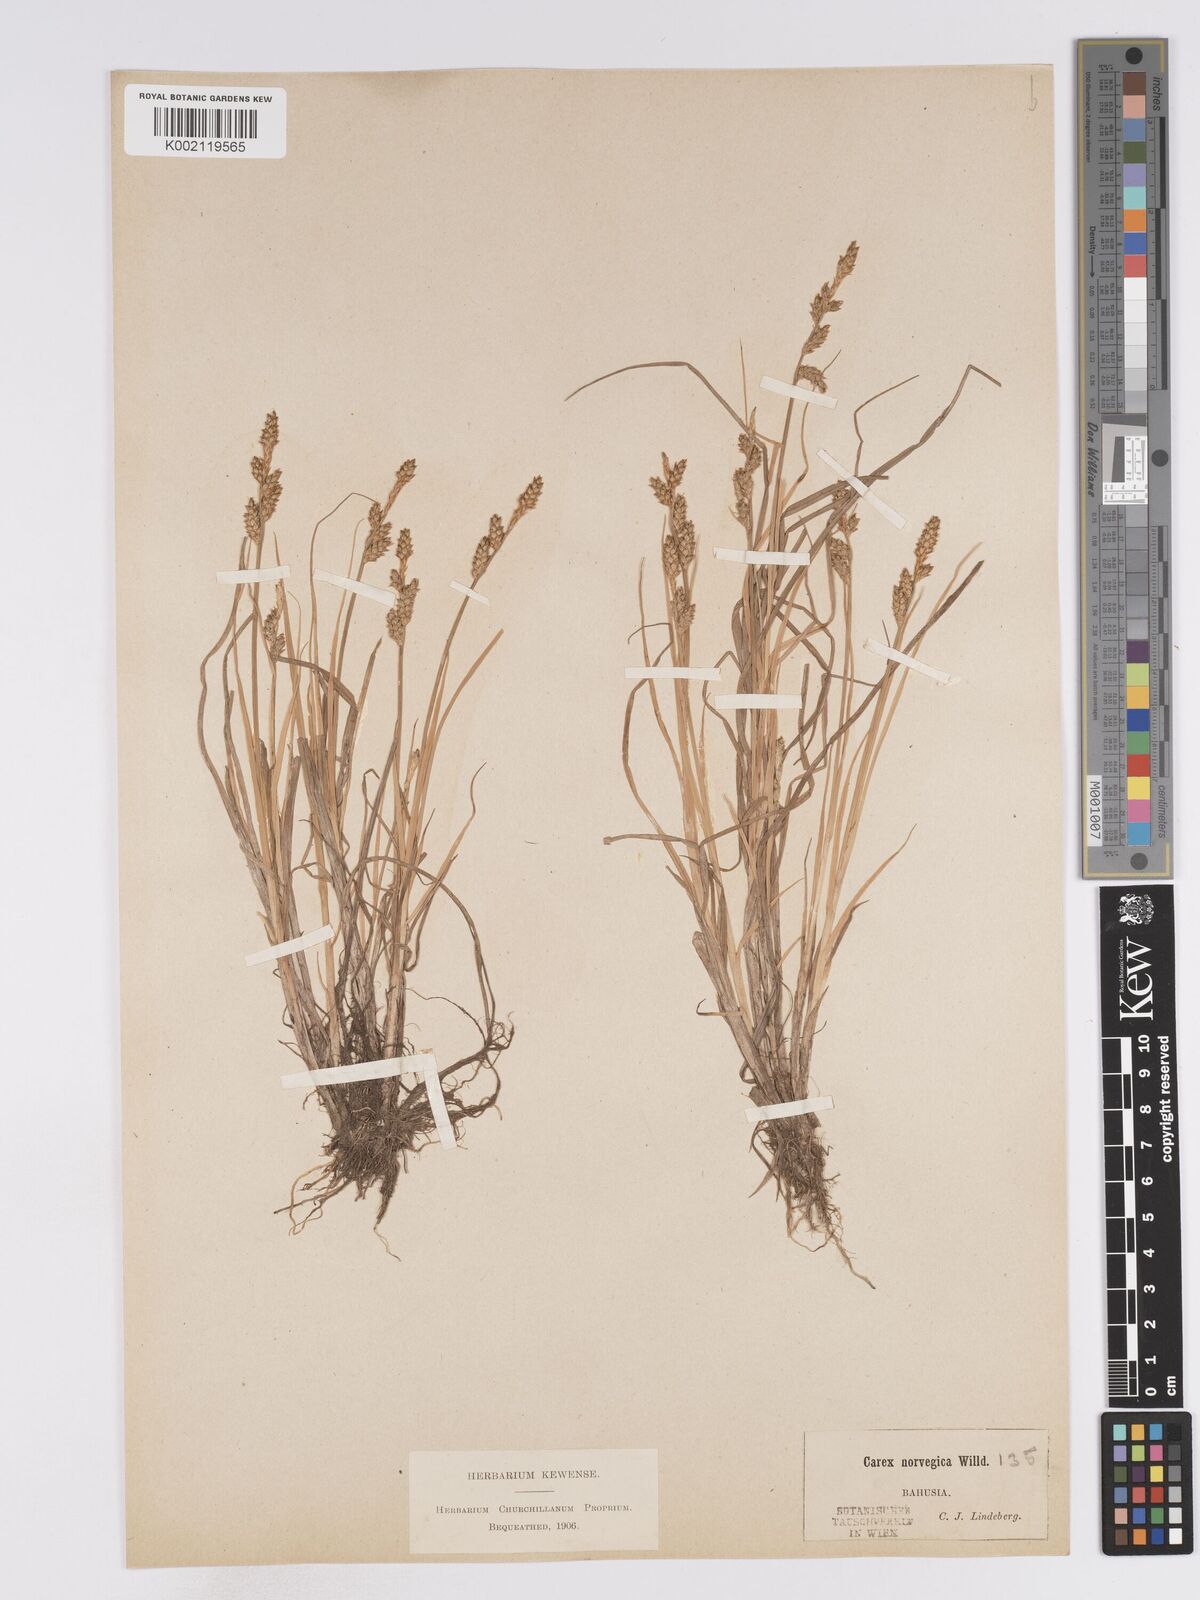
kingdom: Plantae
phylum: Tracheophyta
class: Liliopsida
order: Poales
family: Cyperaceae
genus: Carex
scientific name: Carex mackenziei
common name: Mackenzie's sedge
